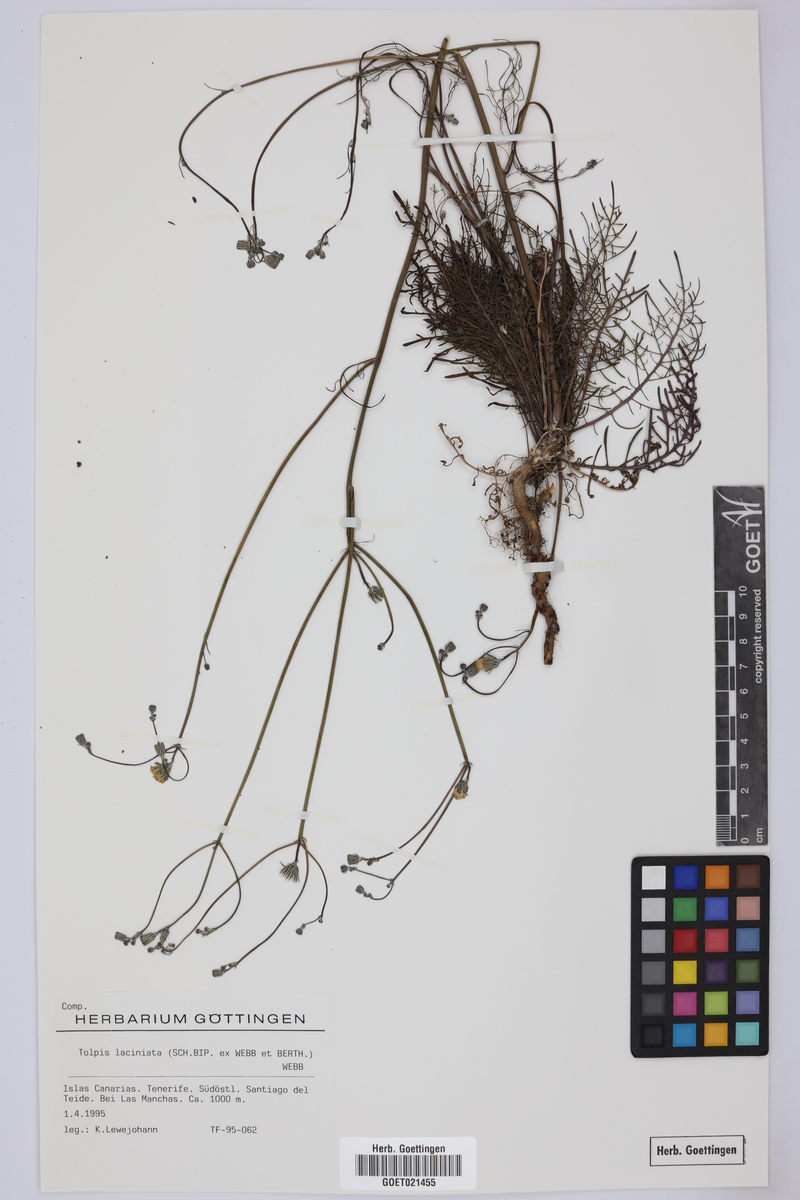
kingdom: Plantae
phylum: Tracheophyta
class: Magnoliopsida
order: Asterales
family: Asteraceae
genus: Tolpis
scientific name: Tolpis coronopifolia
